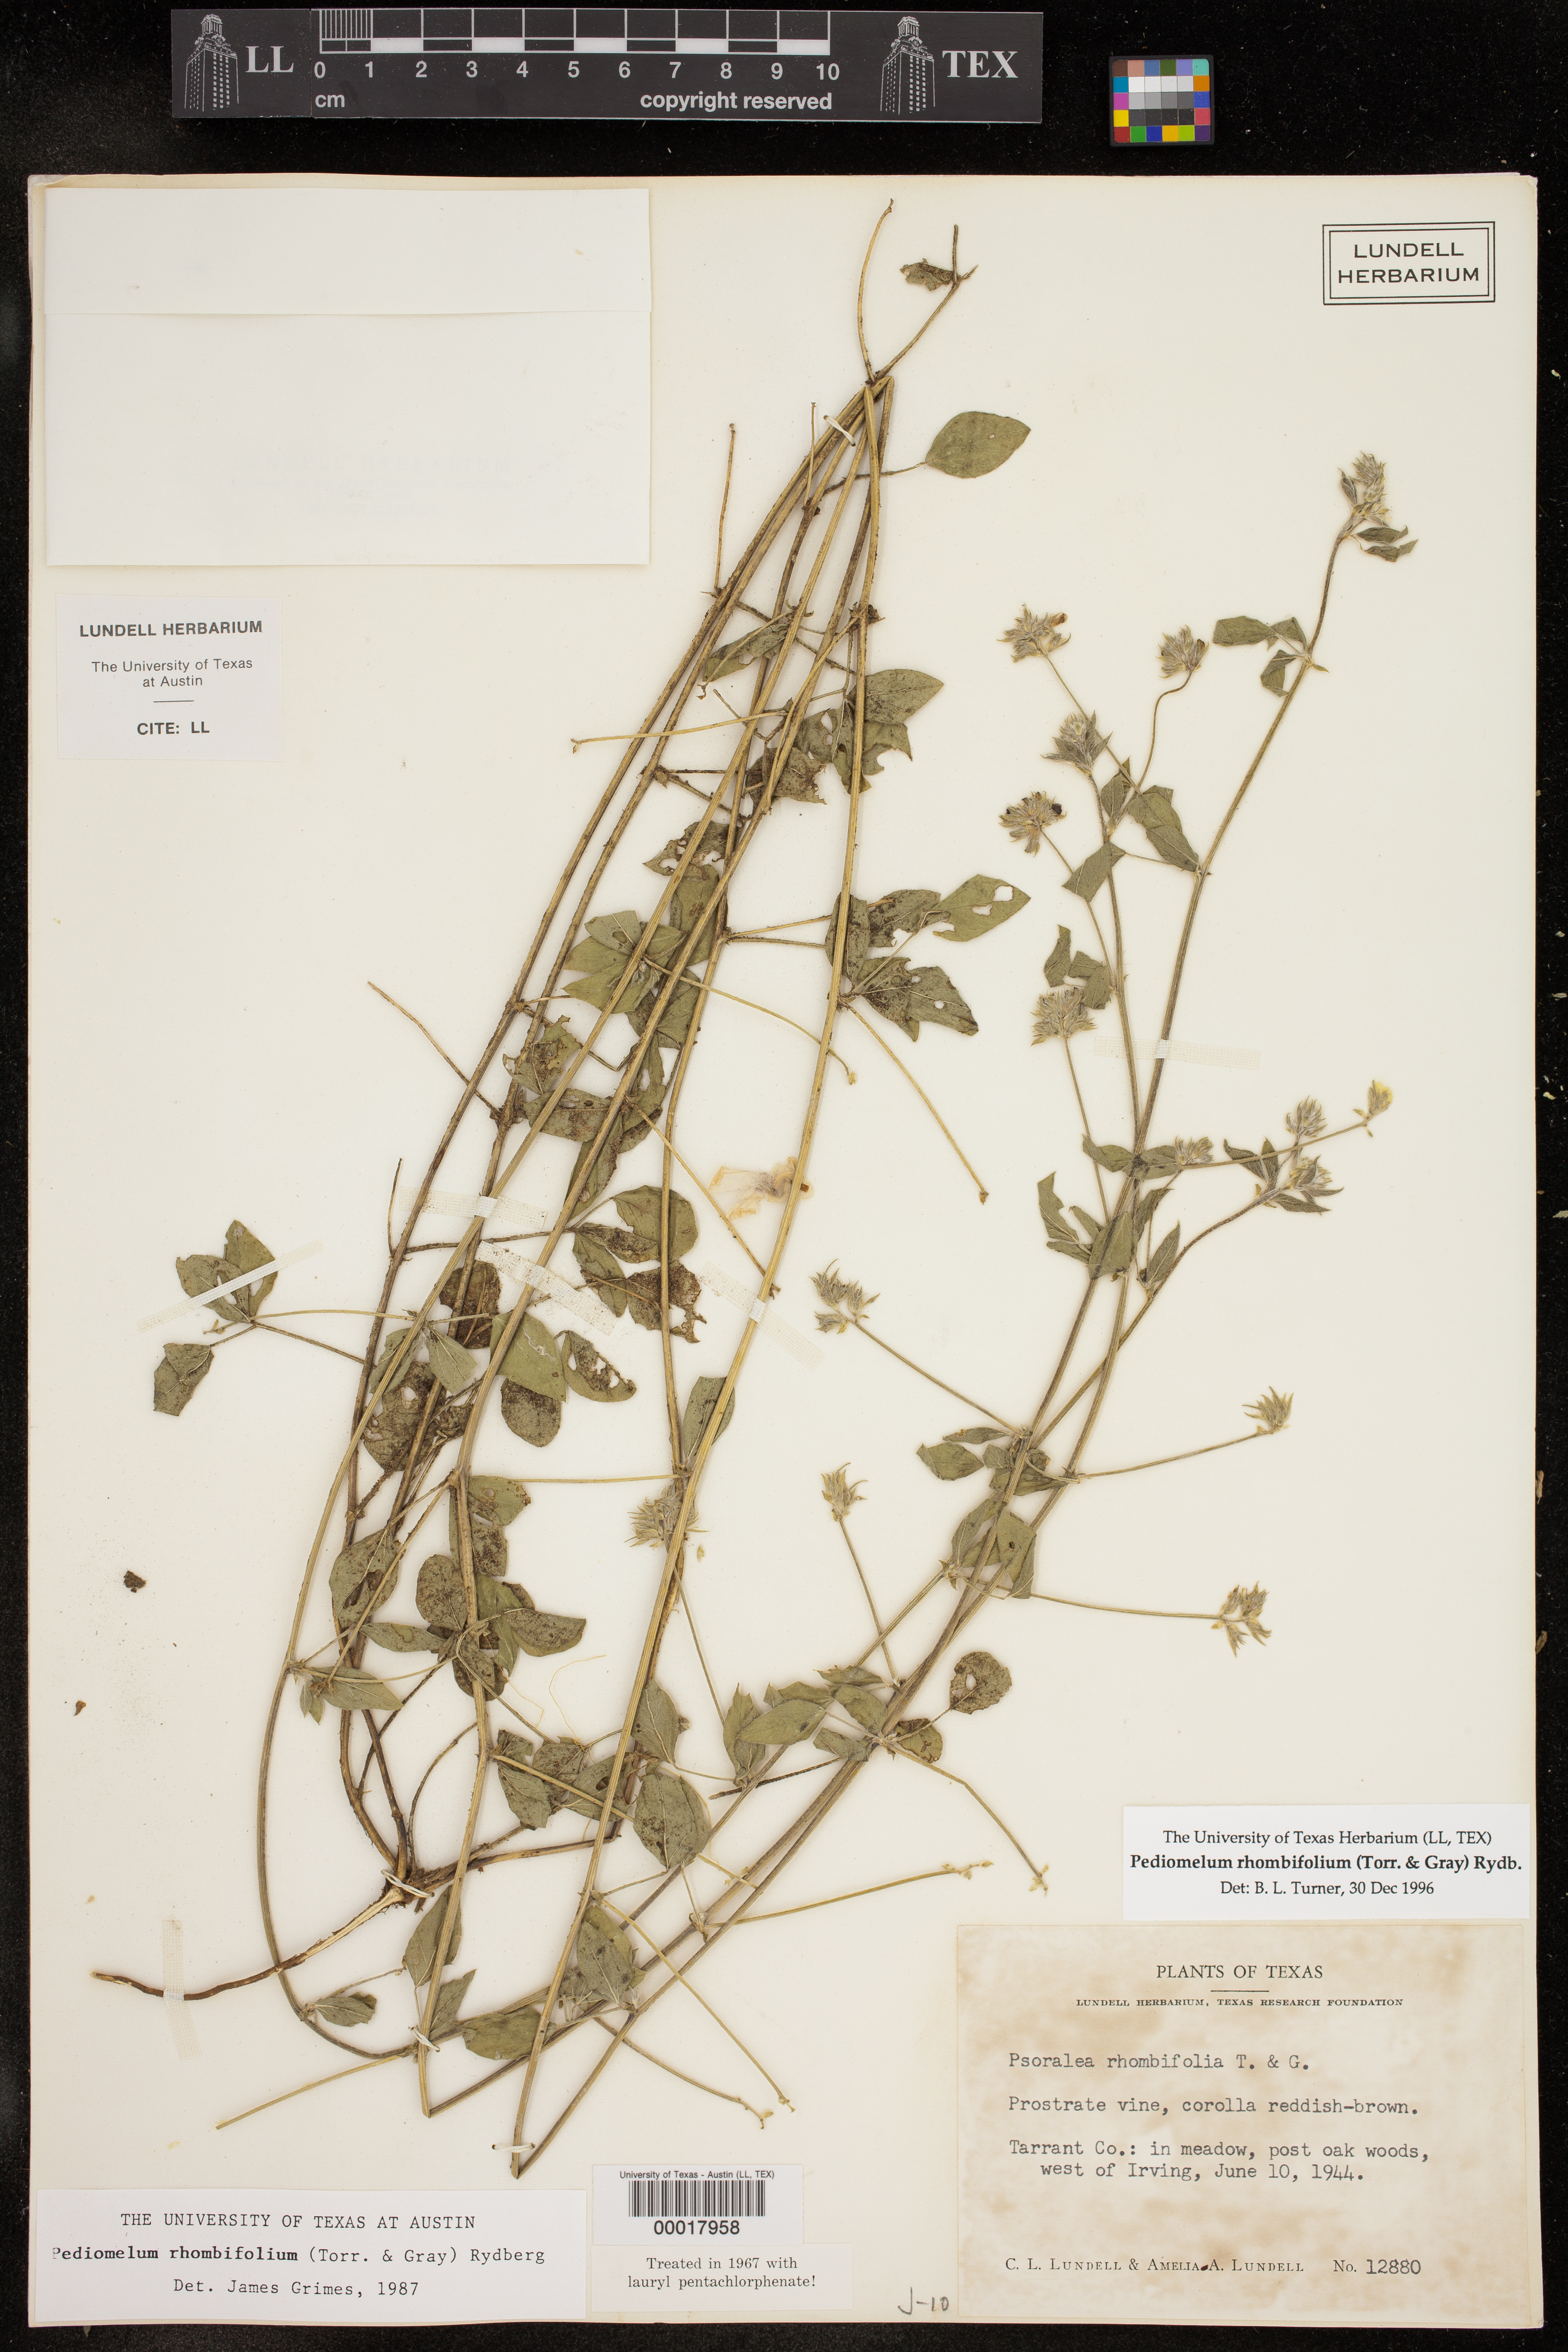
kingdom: Plantae
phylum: Tracheophyta
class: Magnoliopsida
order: Fabales
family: Fabaceae
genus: Pediomelum
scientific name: Pediomelum rhombifolium
